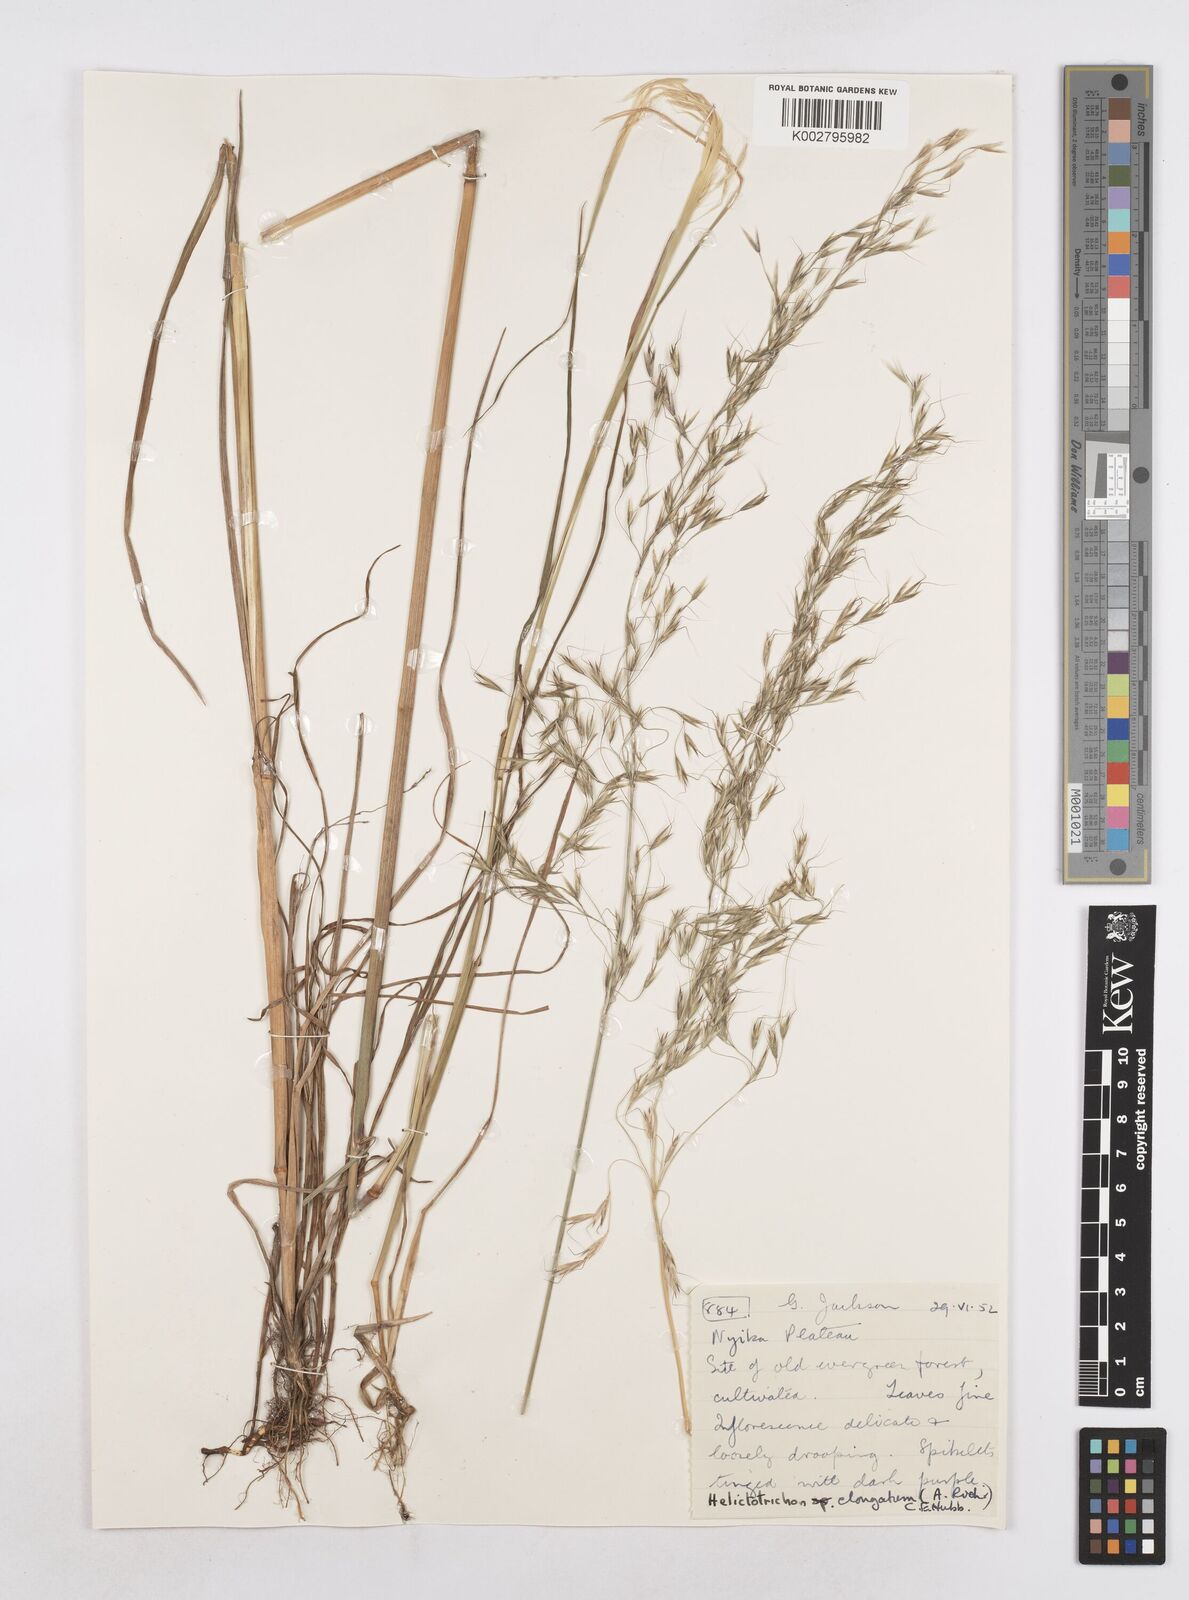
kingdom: Plantae
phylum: Tracheophyta
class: Liliopsida
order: Poales
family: Poaceae
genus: Trisetopsis
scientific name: Trisetopsis elongata
